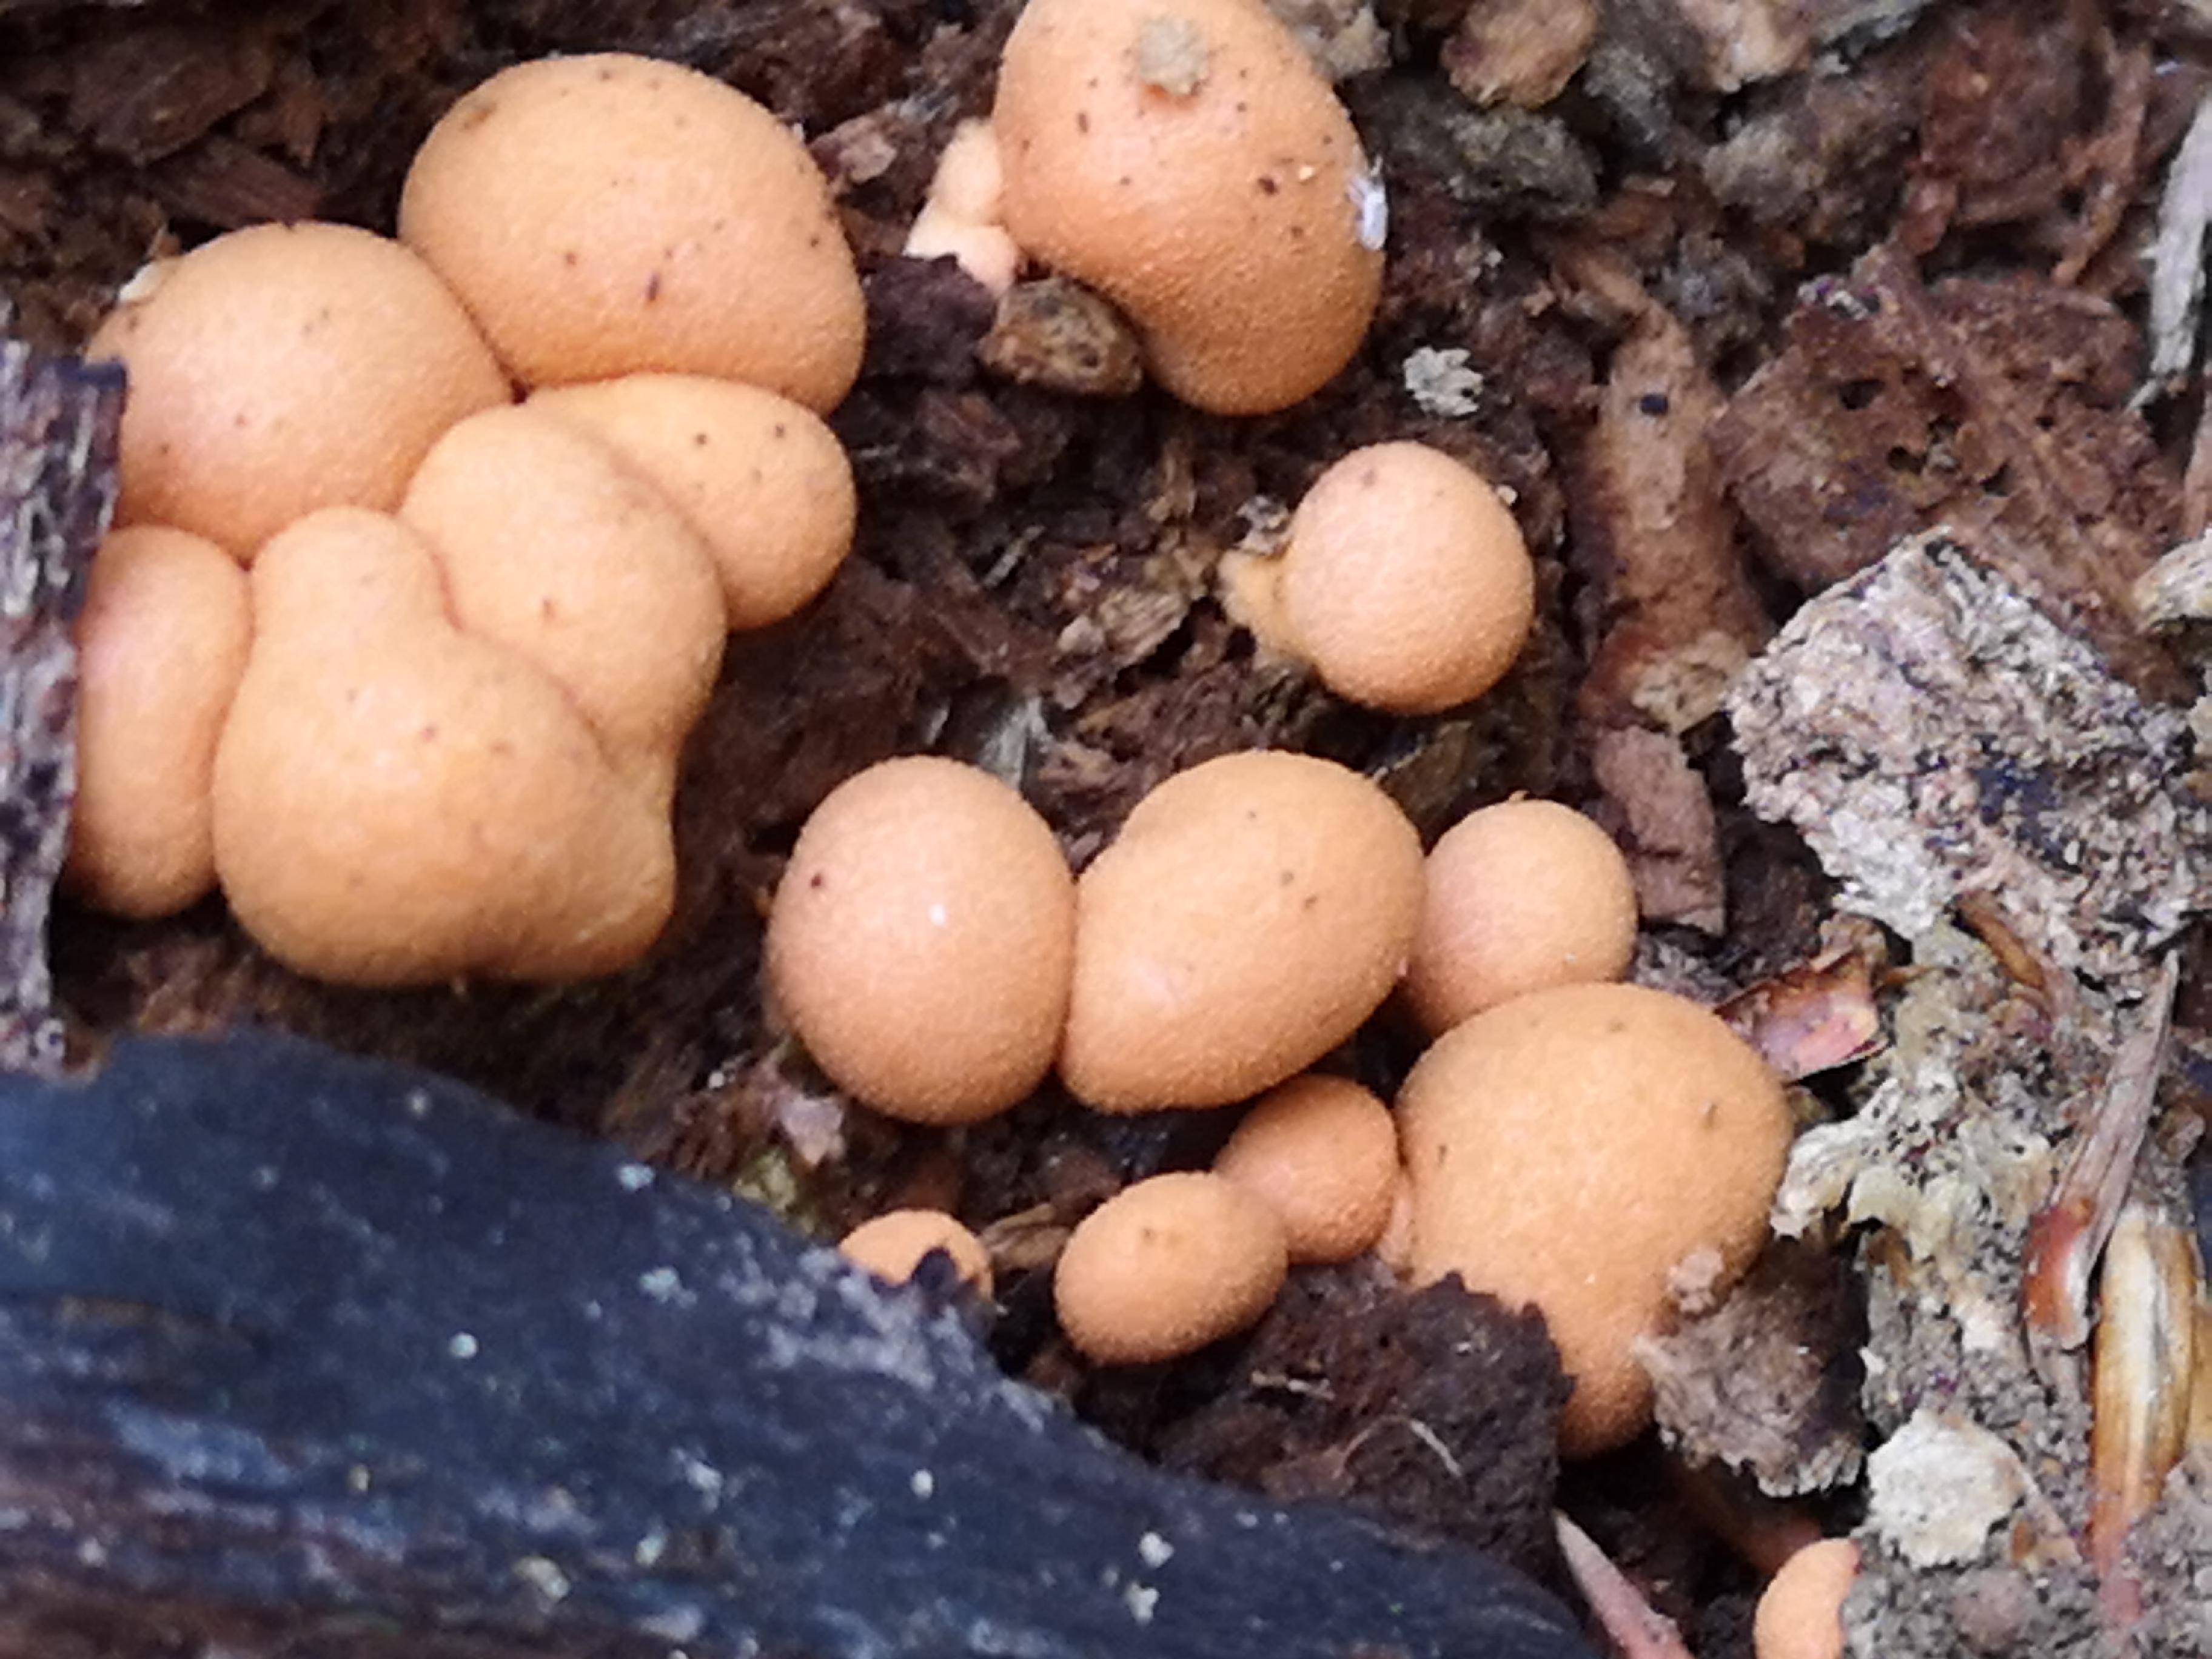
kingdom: Protozoa
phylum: Mycetozoa
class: Myxomycetes
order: Cribrariales
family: Tubiferaceae
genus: Lycogala
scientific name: Lycogala epidendrum
